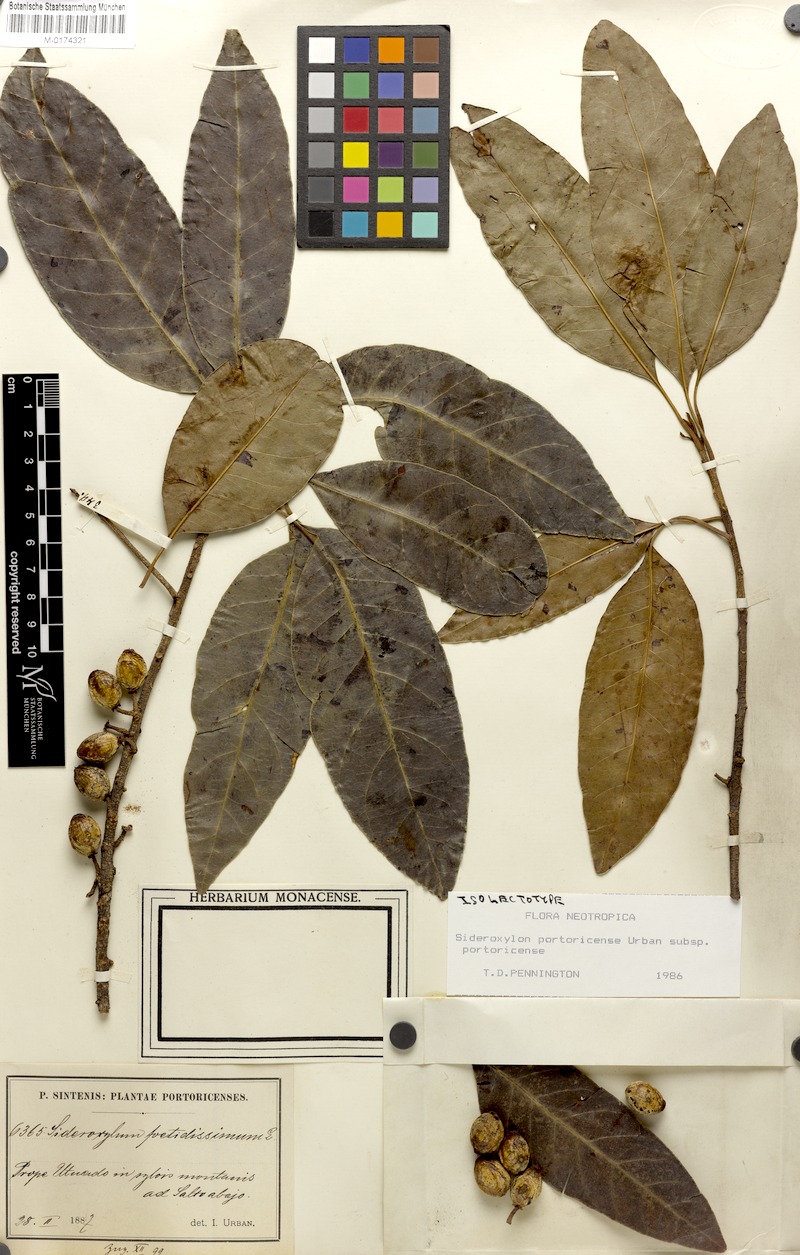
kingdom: Plantae
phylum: Tracheophyta
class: Magnoliopsida
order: Ericales
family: Sapotaceae
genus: Sideroxylon
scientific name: Sideroxylon portoricense
